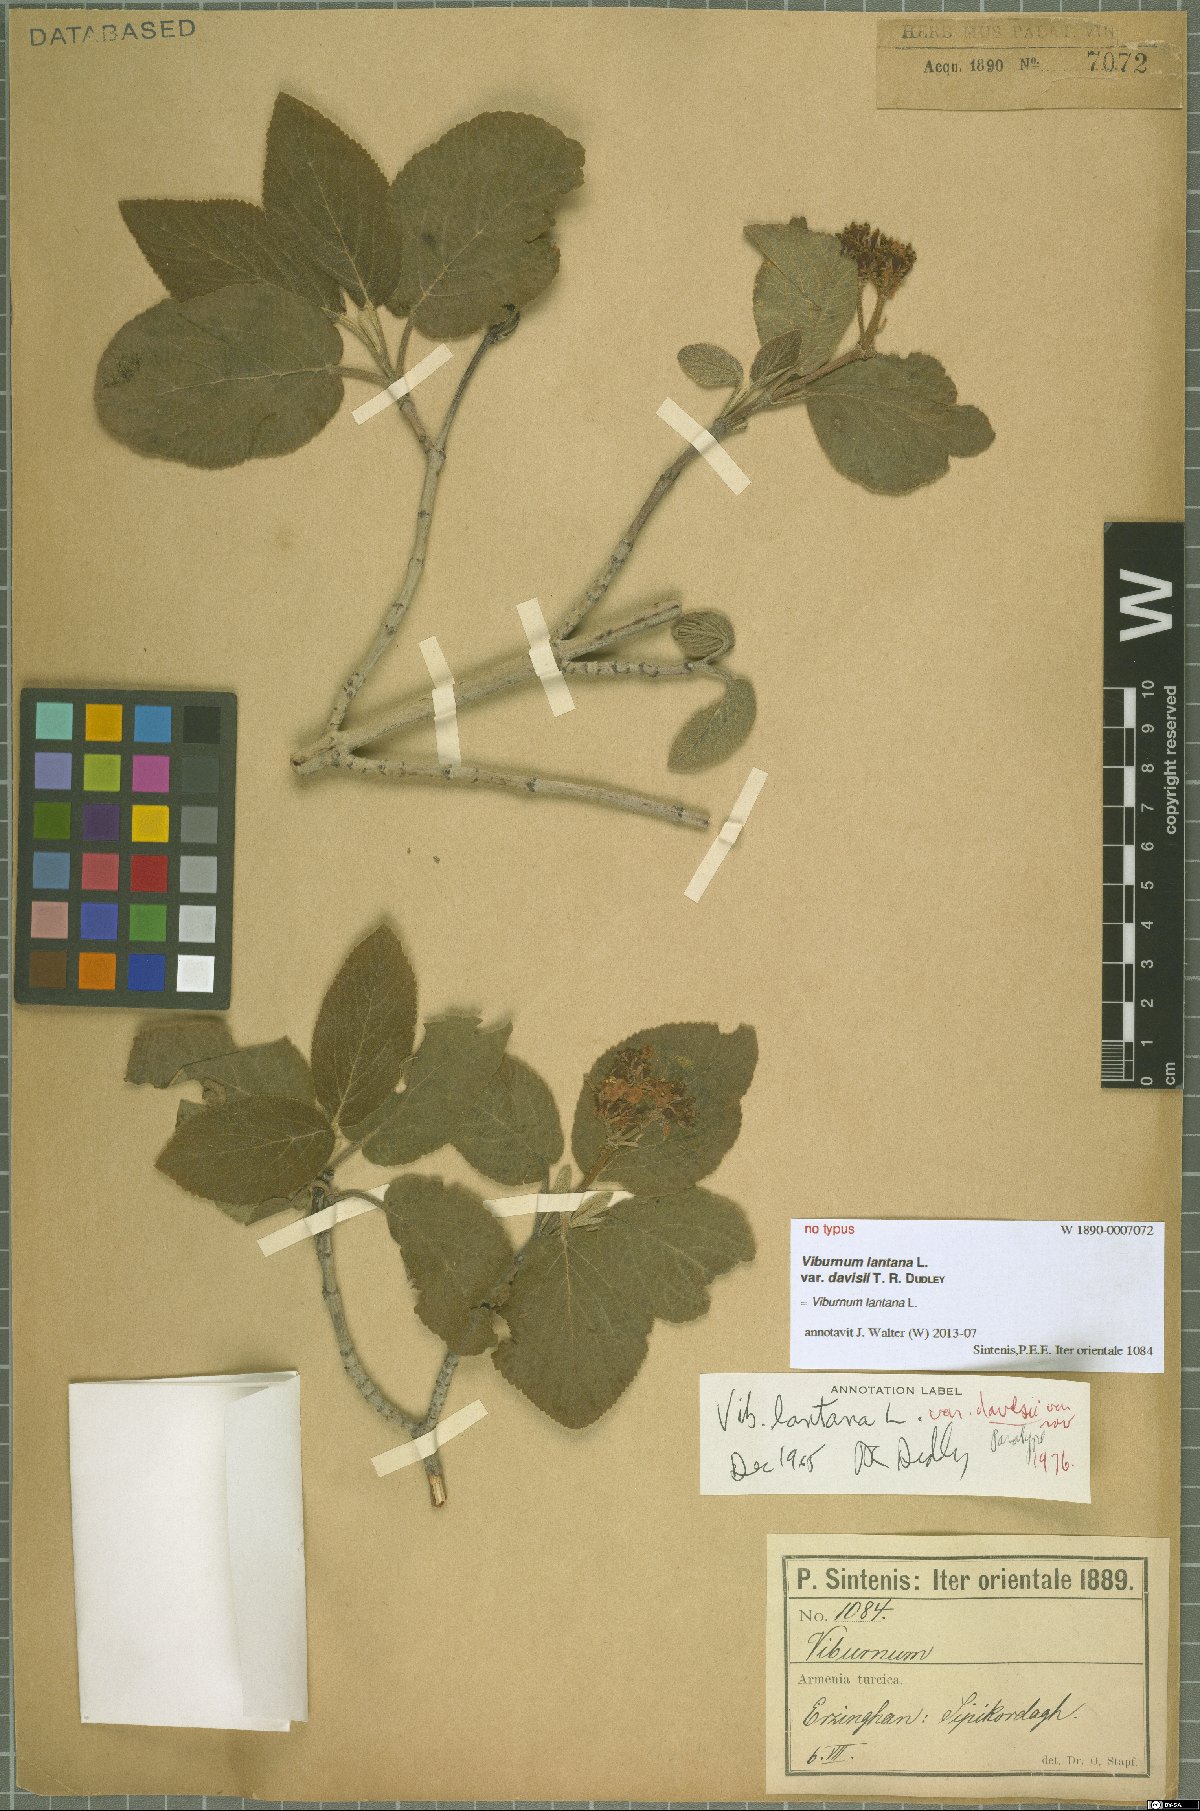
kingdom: Plantae
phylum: Tracheophyta
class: Magnoliopsida
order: Dipsacales
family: Viburnaceae
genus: Viburnum
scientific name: Viburnum lantana
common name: Wayfaring tree
